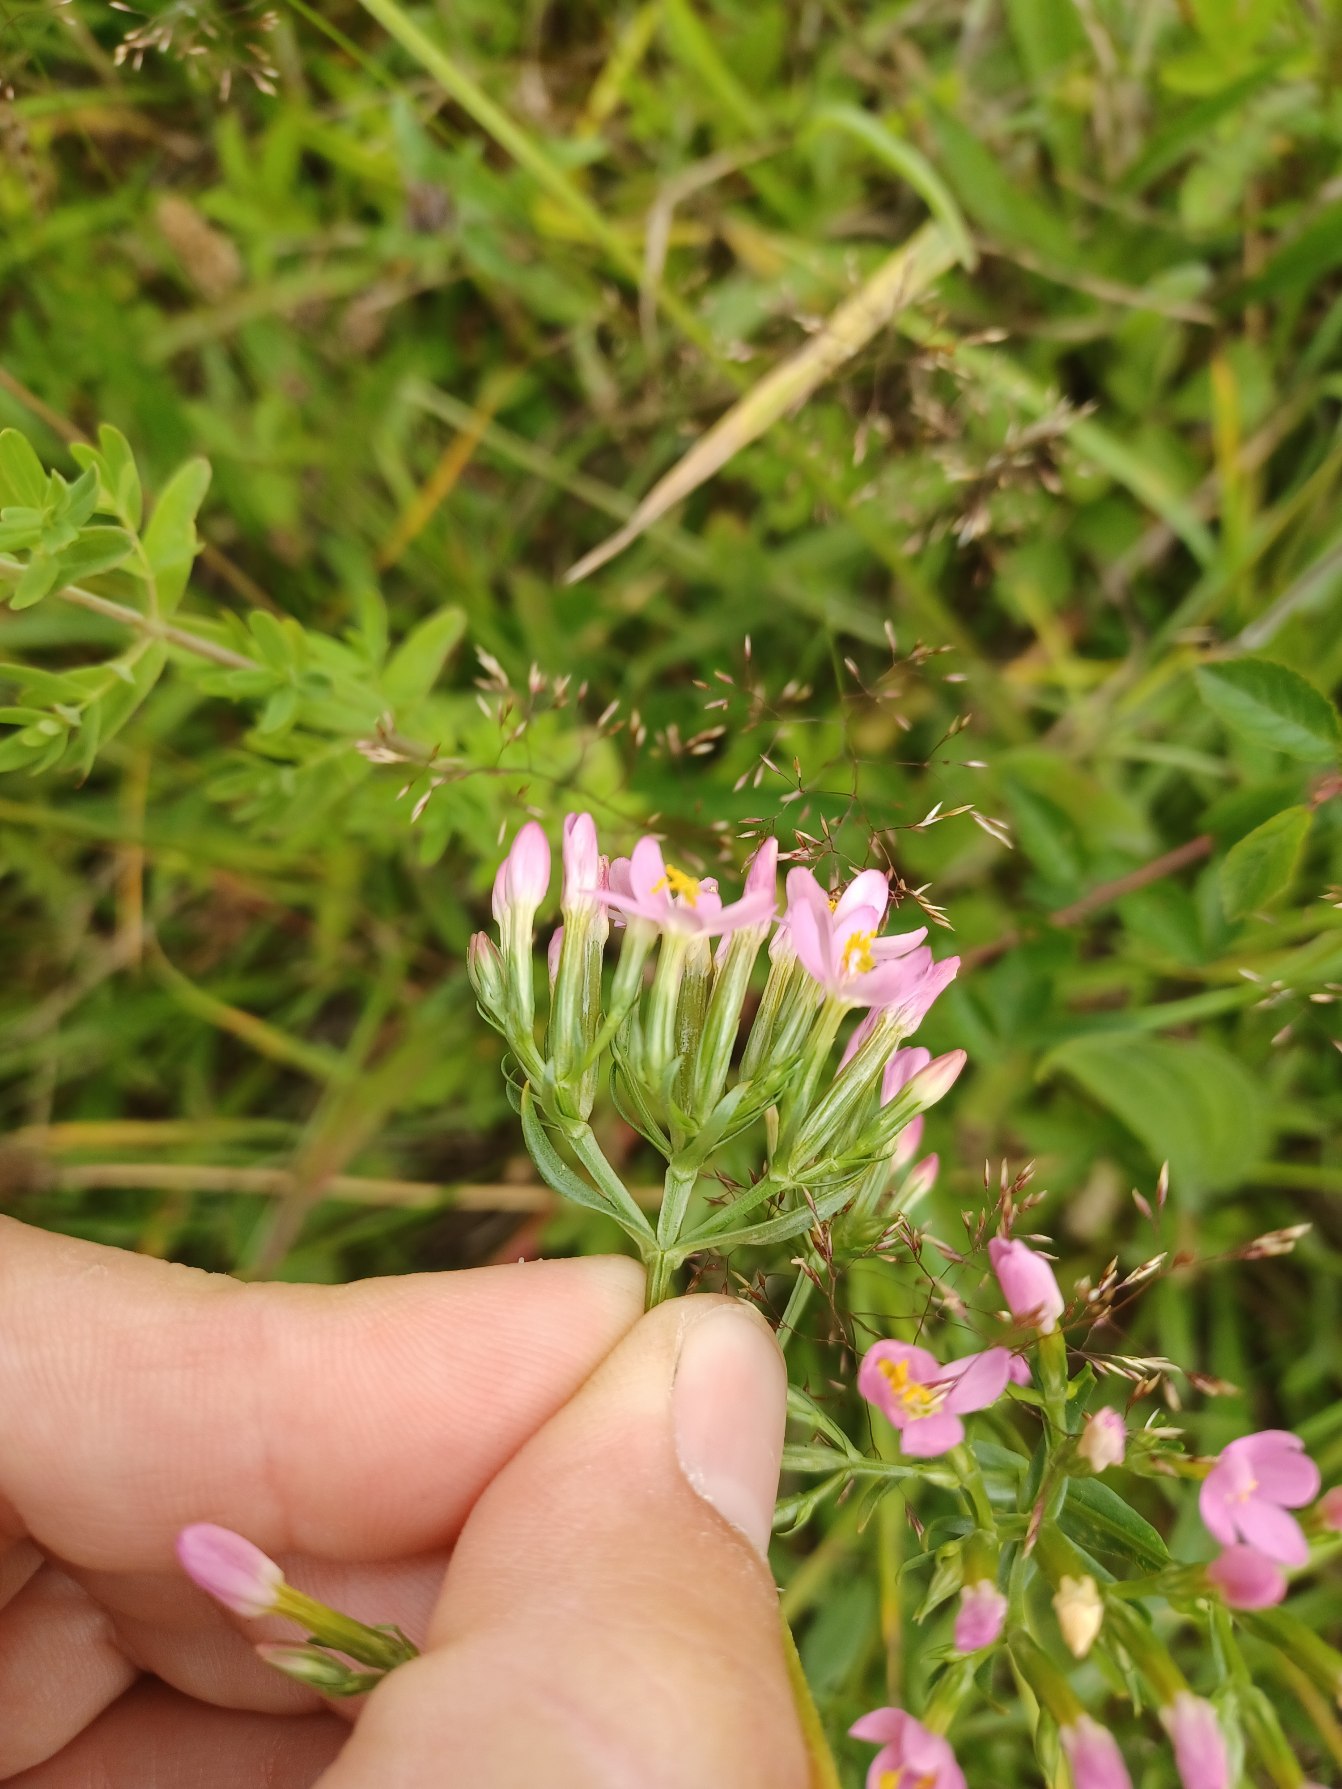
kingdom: Plantae
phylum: Tracheophyta
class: Magnoliopsida
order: Gentianales
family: Gentianaceae
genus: Centaurium
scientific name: Centaurium erythraea
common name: Mark-tusindgylden
